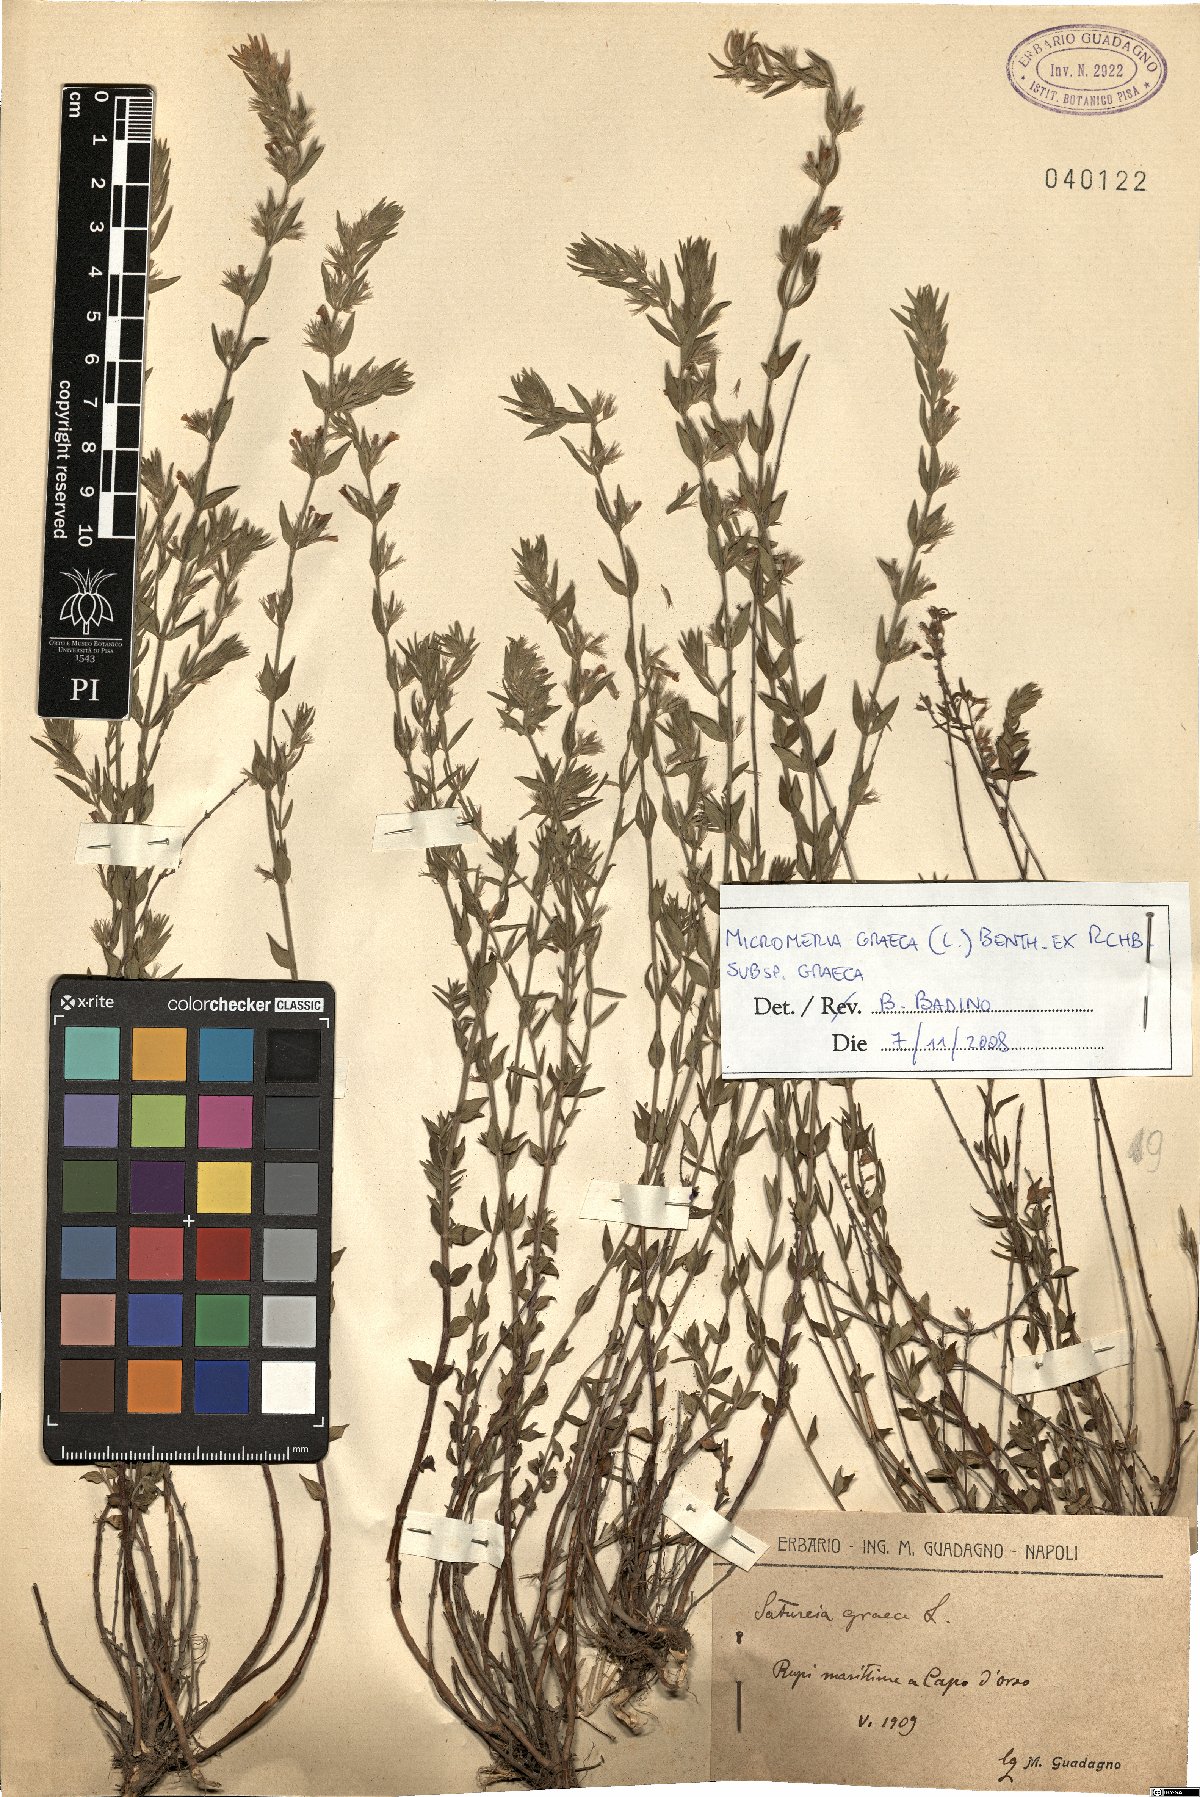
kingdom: Plantae
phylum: Tracheophyta
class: Magnoliopsida
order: Lamiales
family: Lamiaceae
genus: Micromeria
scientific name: Micromeria graeca
